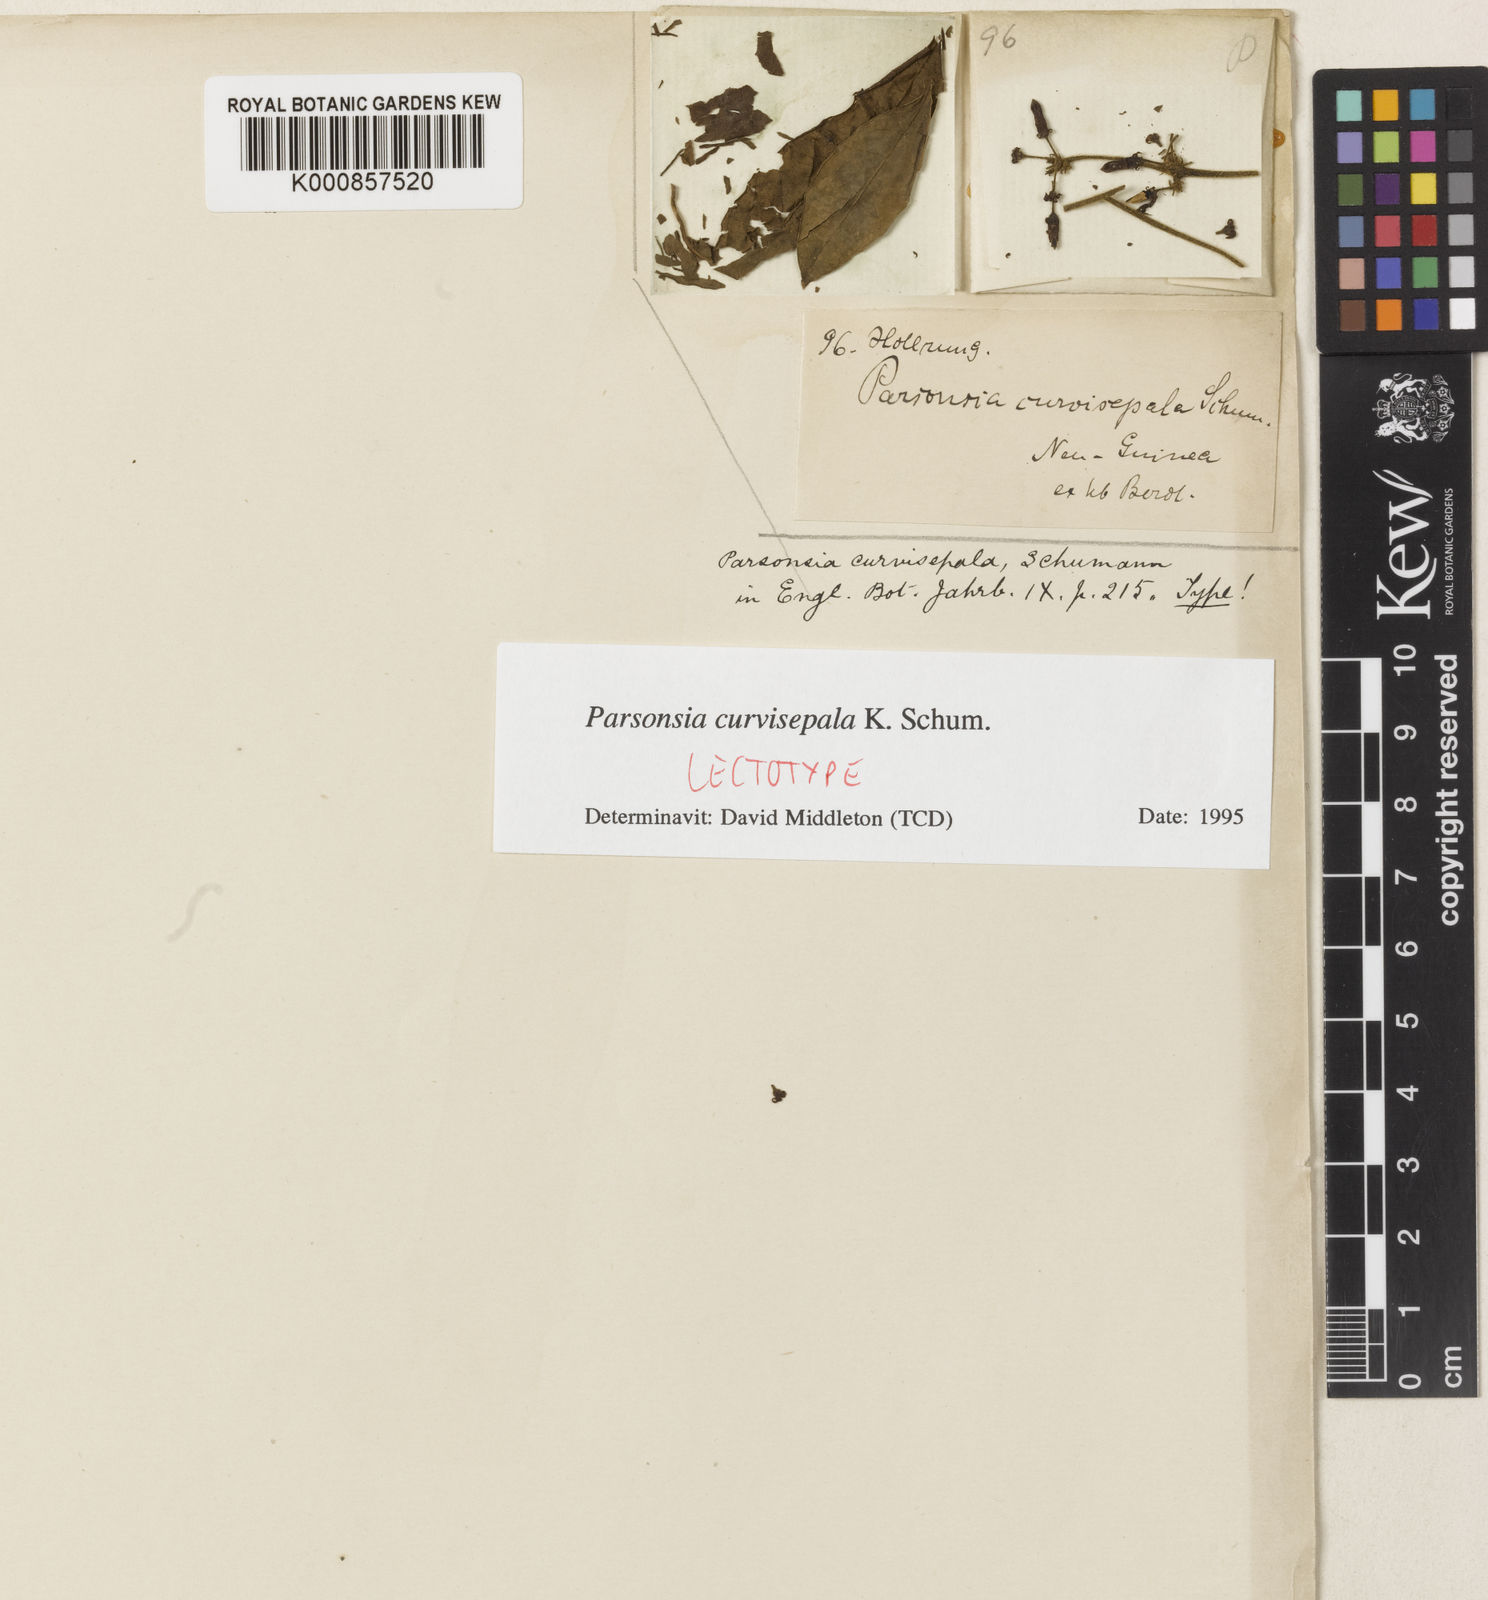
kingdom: Plantae
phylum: Tracheophyta
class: Magnoliopsida
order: Gentianales
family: Apocynaceae
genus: Parsonsia
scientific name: Parsonsia curvisepala
